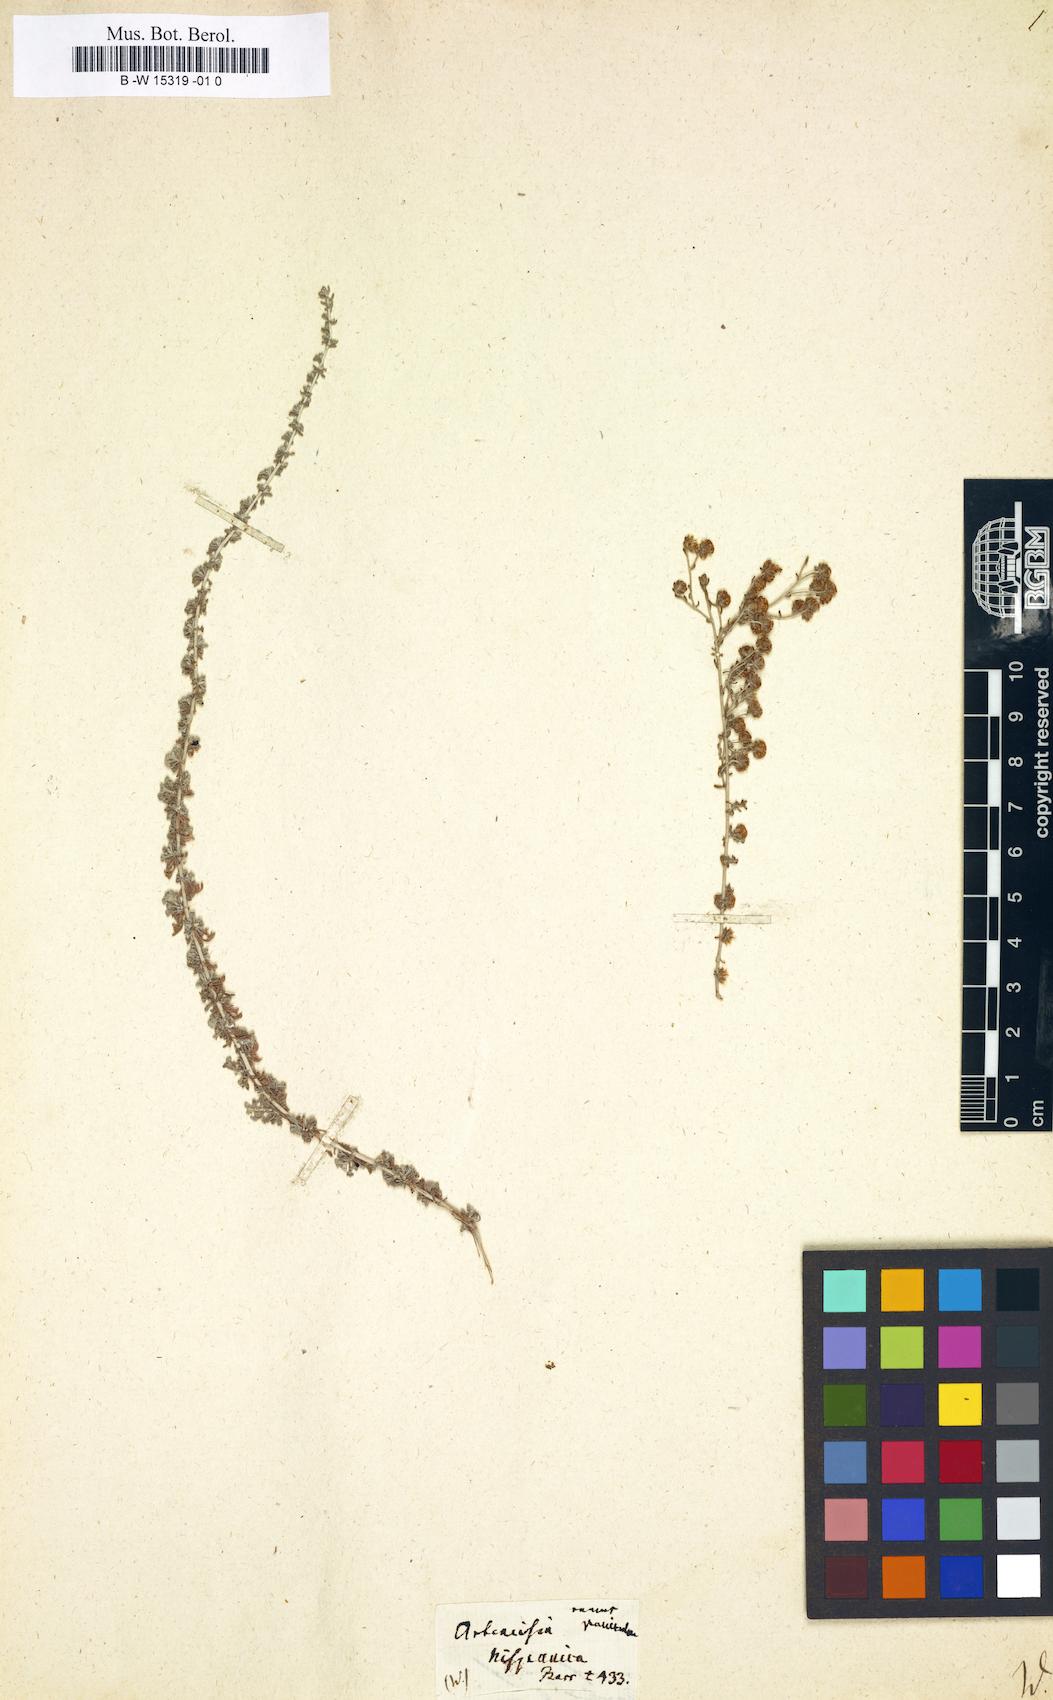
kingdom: Plantae
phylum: Tracheophyta
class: Magnoliopsida
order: Asterales
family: Asteraceae
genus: Artemisia
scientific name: Artemisia aethiopica
